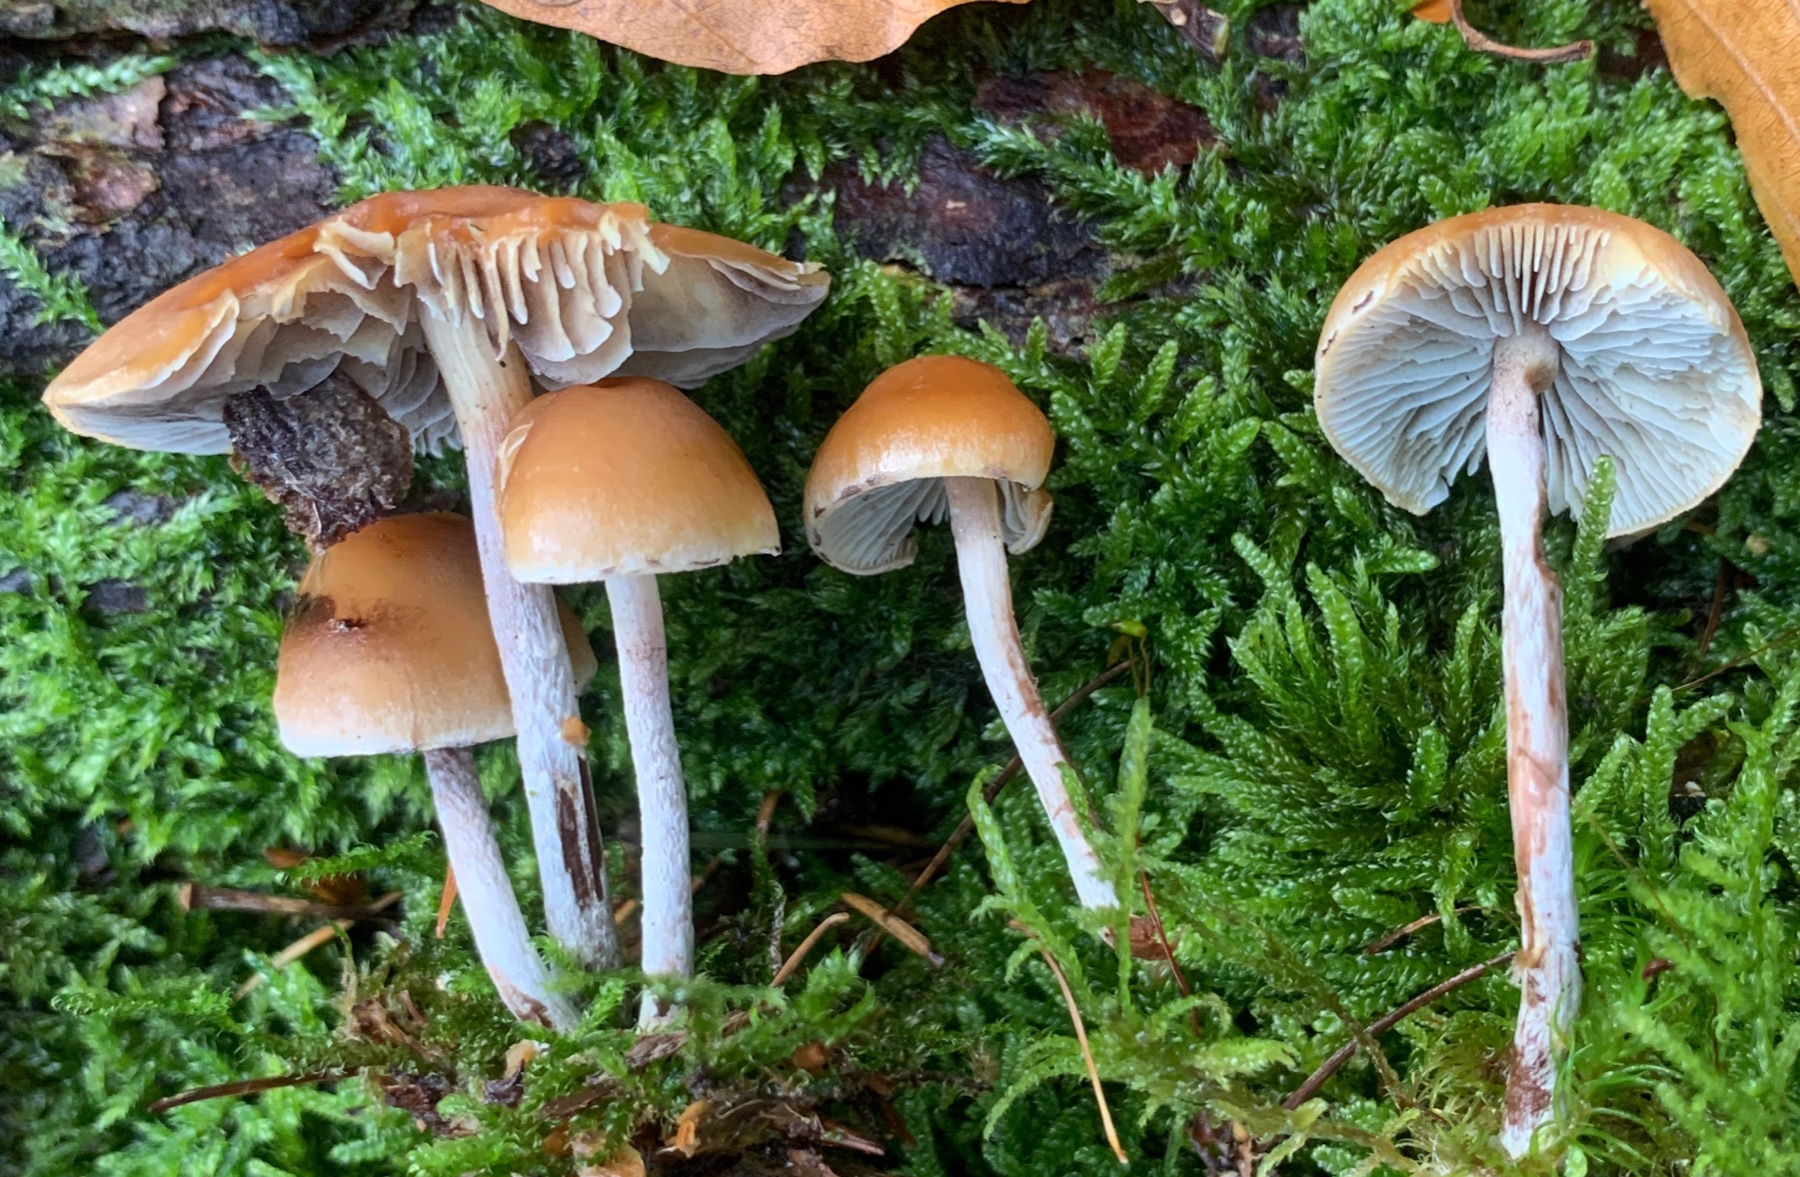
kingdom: Fungi
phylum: Basidiomycota
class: Agaricomycetes
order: Agaricales
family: Strophariaceae
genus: Hypholoma
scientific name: Hypholoma marginatum
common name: enlig svovlhat
